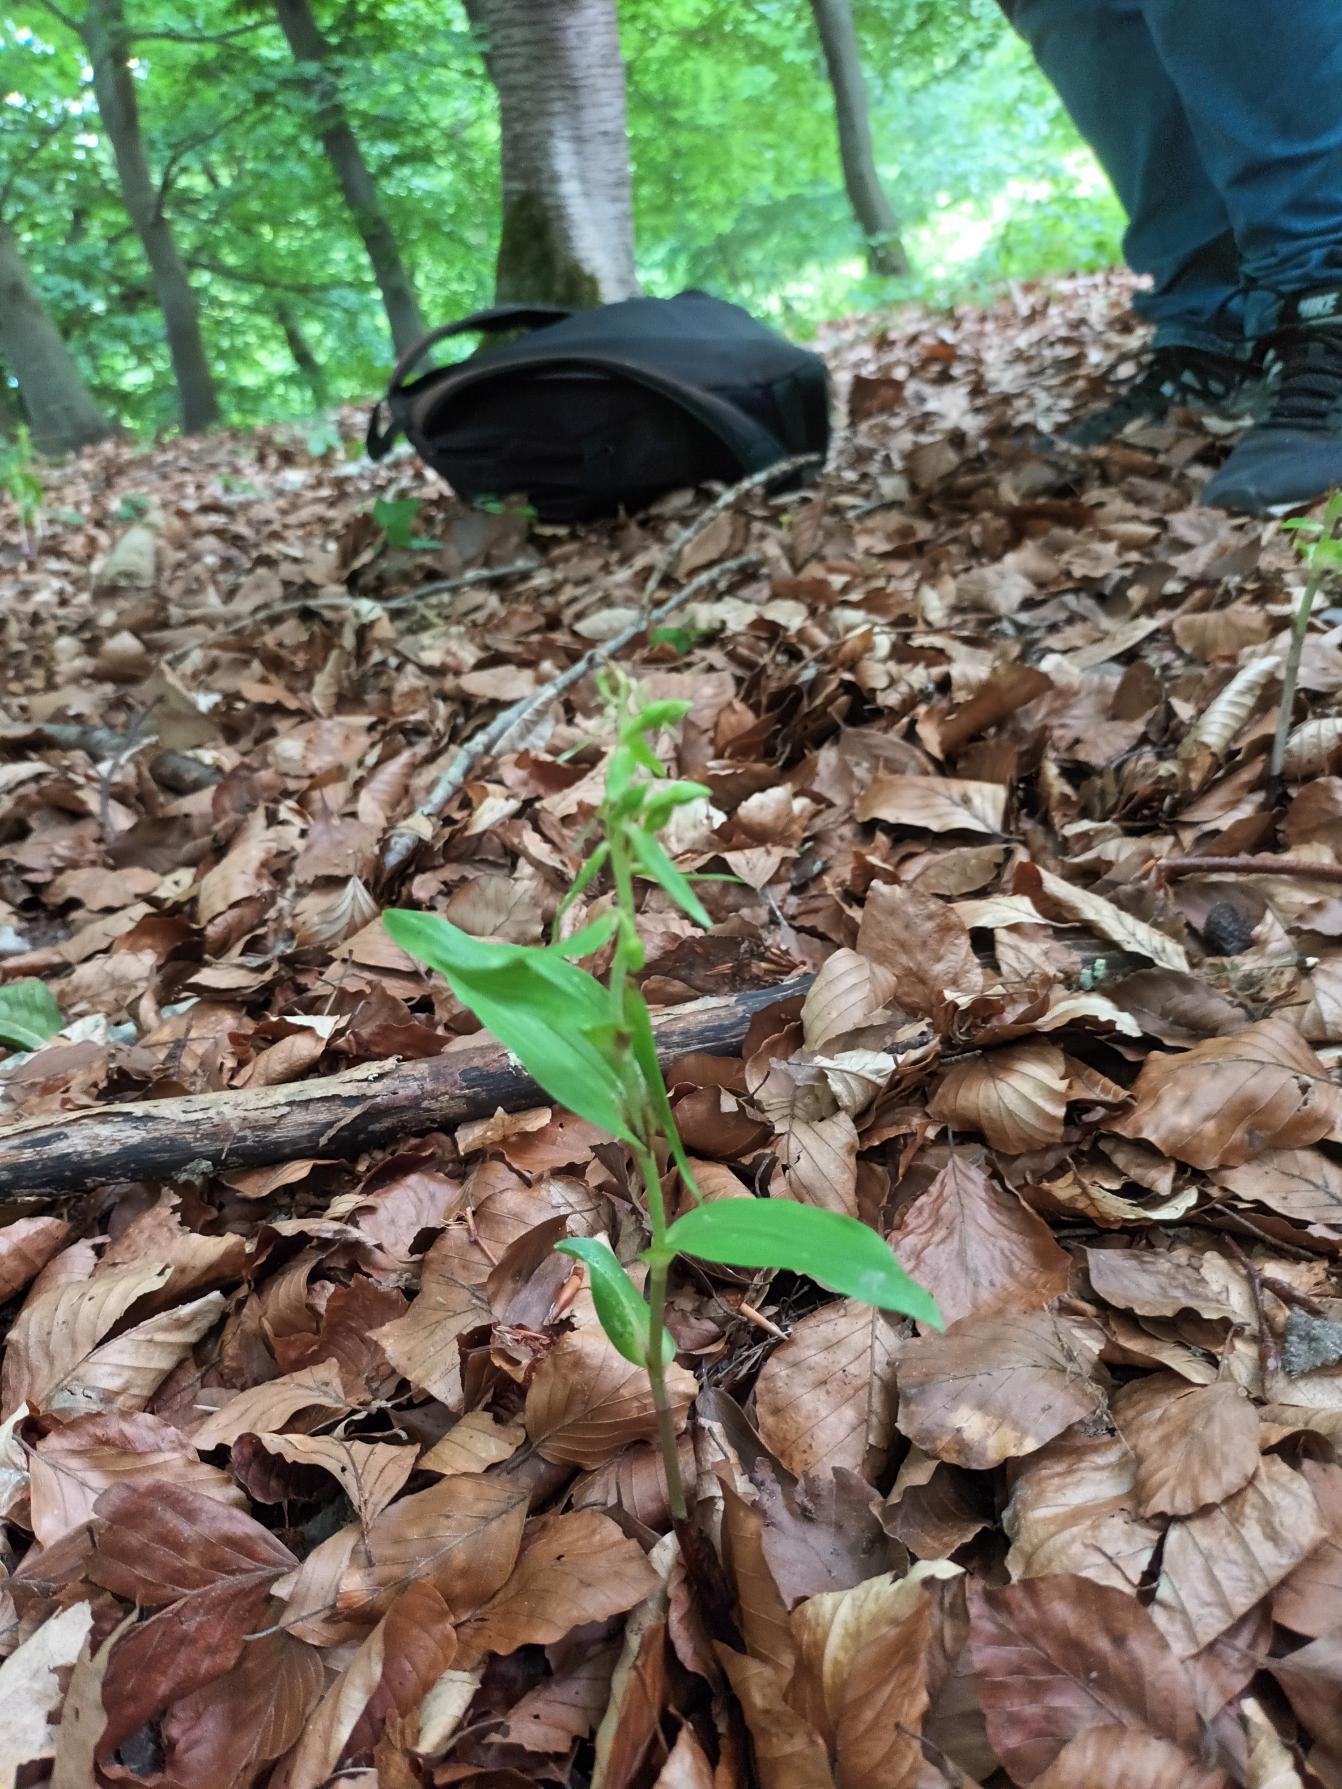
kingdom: Plantae
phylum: Tracheophyta
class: Liliopsida
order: Asparagales
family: Orchidaceae
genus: Epipactis
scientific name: Epipactis leptochila
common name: Storblomstret hullæbe
